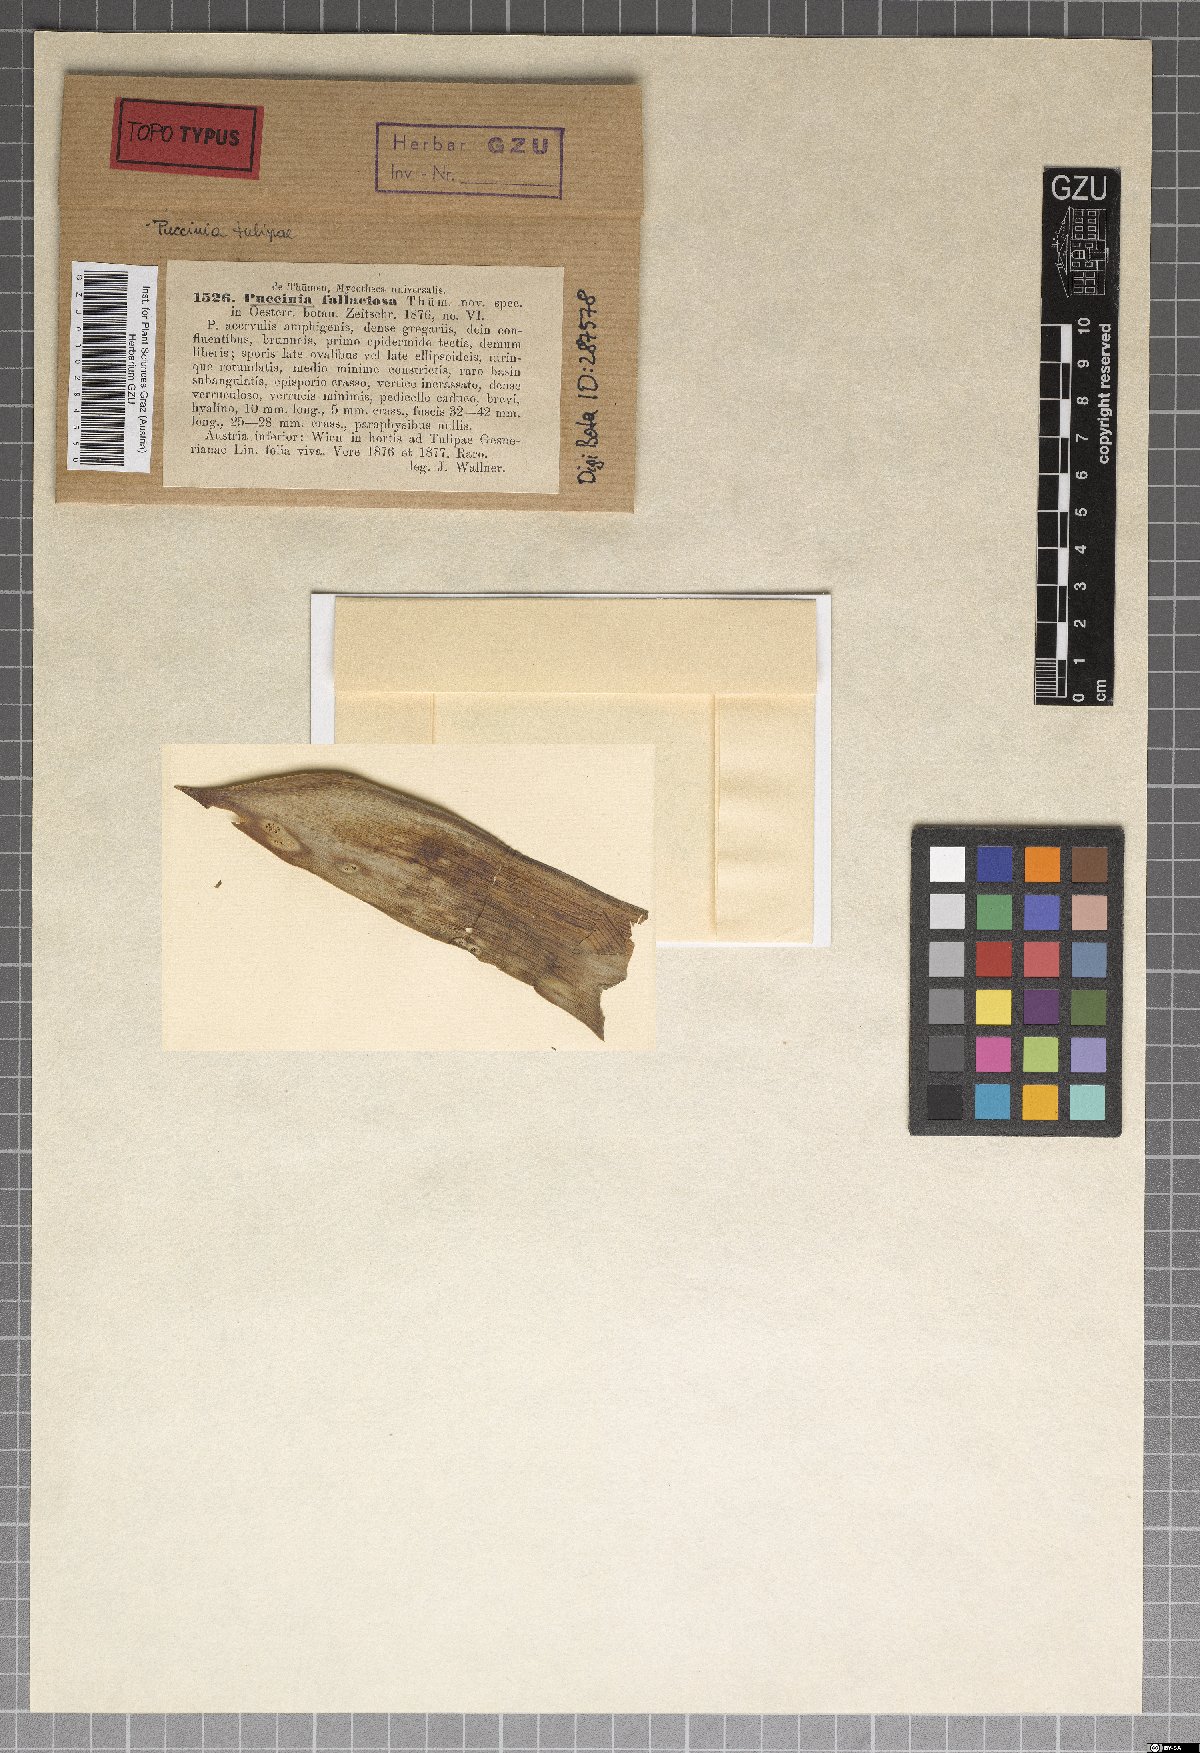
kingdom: Fungi
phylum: Basidiomycota
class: Pucciniomycetes
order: Pucciniales
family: Pucciniaceae
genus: Puccinia
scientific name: Puccinia fallaciosa
